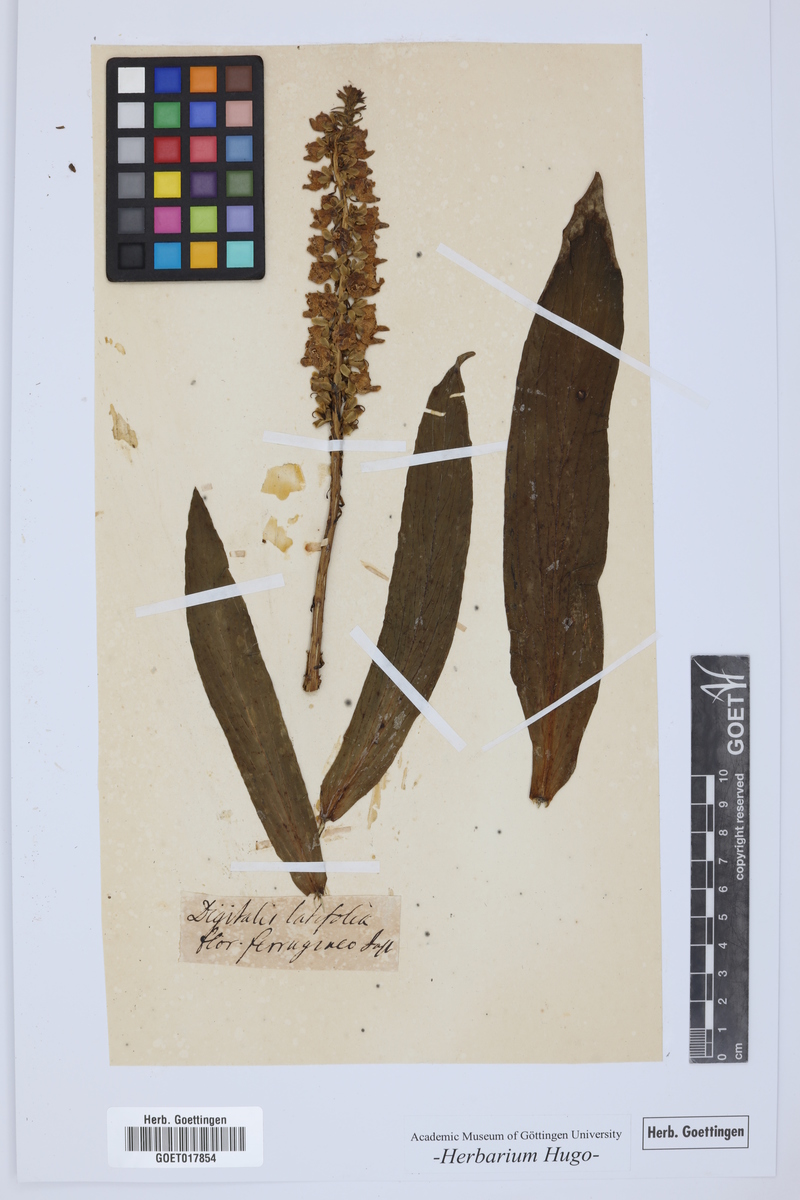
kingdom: Plantae
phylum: Tracheophyta
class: Magnoliopsida
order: Lamiales
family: Plantaginaceae
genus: Digitalis
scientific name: Digitalis ferruginea
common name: Rusty foxglove
